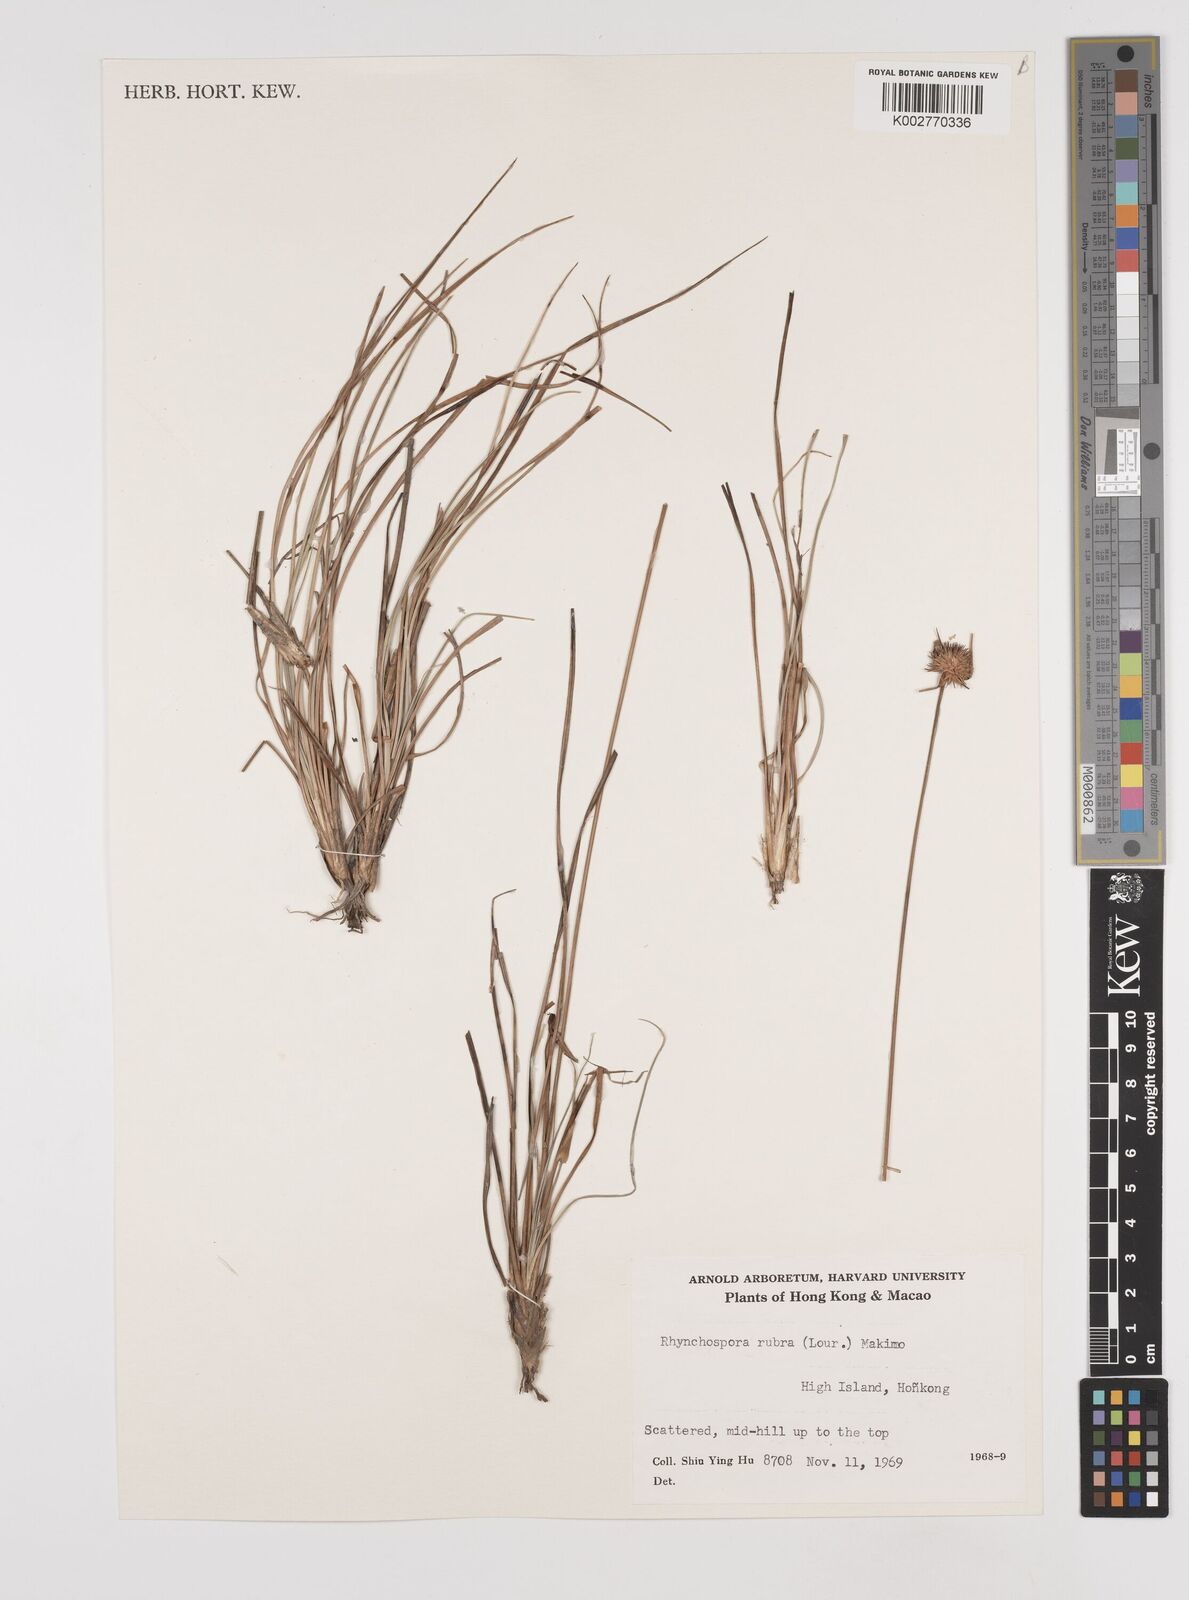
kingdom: Plantae
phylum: Tracheophyta
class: Liliopsida
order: Poales
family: Cyperaceae
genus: Rhynchospora
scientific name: Rhynchospora rubra
